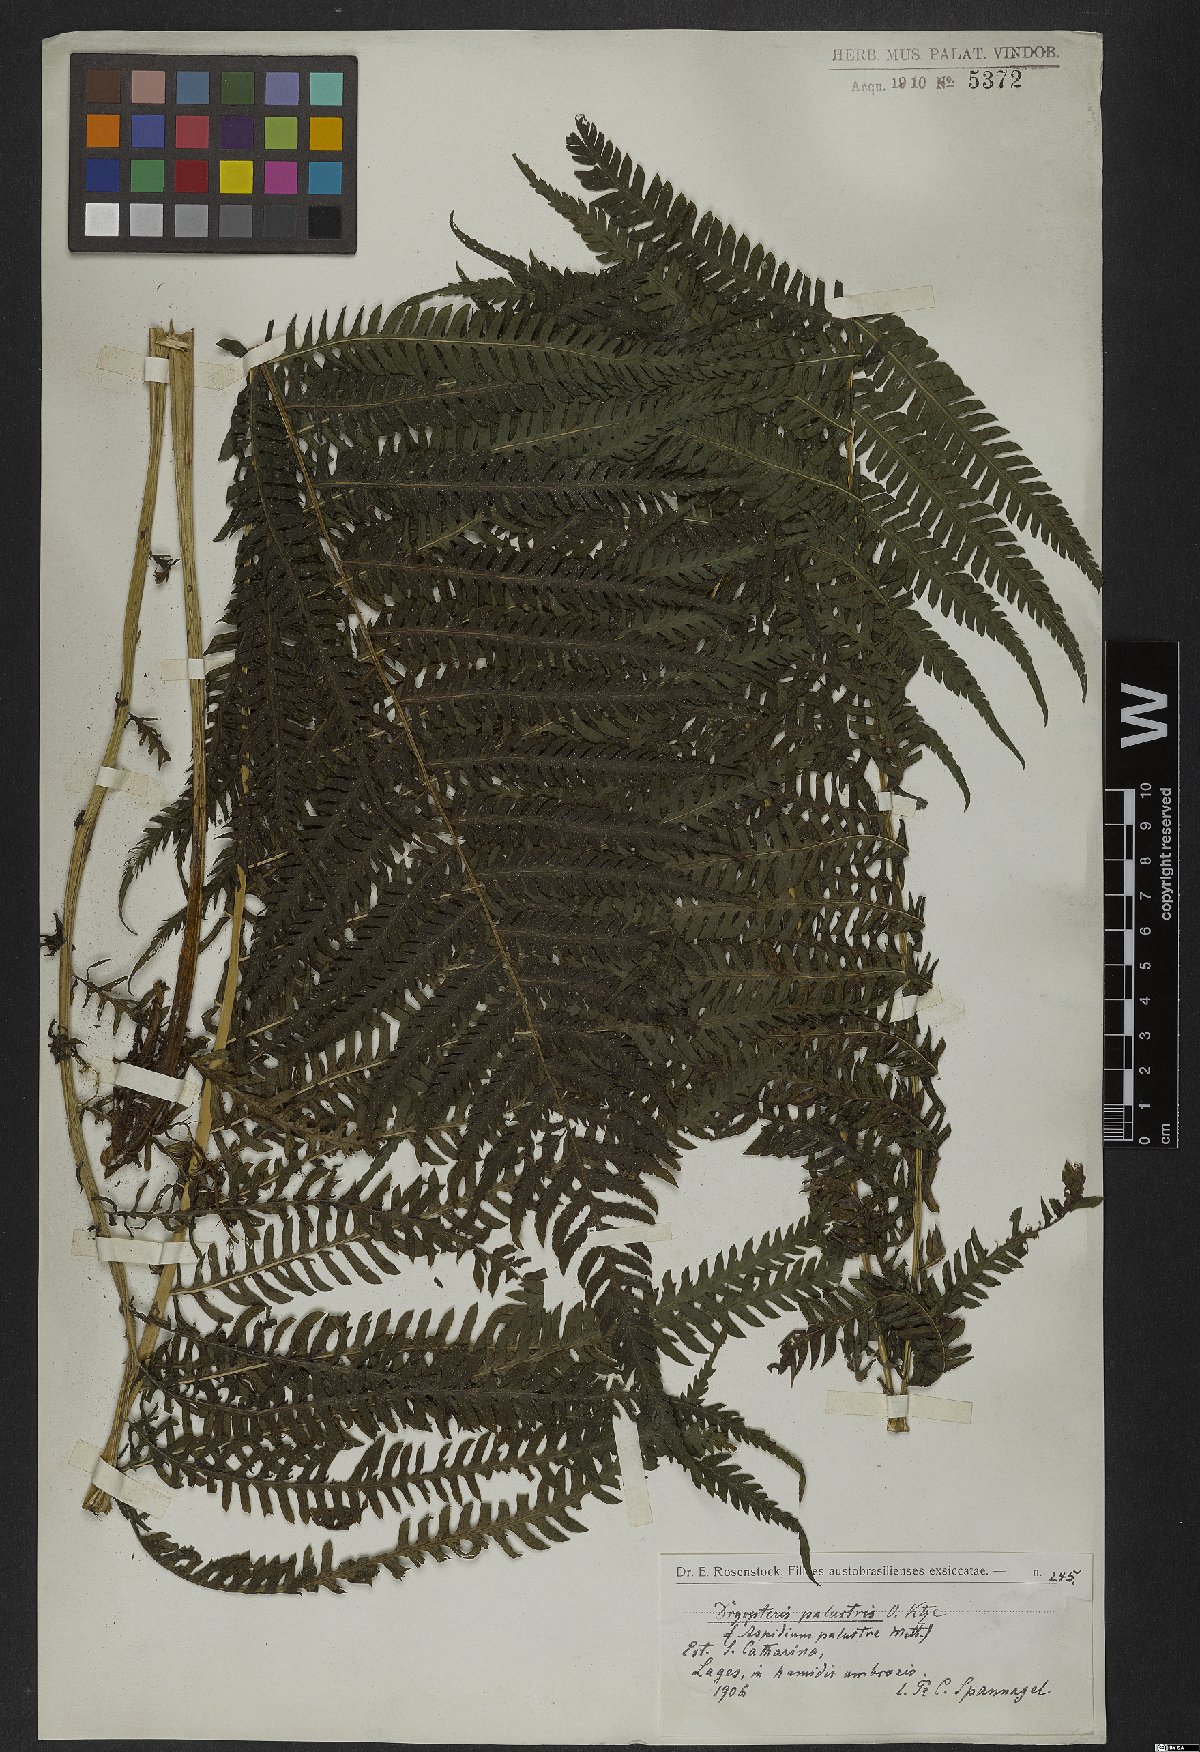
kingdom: Plantae
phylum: Tracheophyta
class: Polypodiopsida
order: Polypodiales
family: Thelypteridaceae
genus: Amauropelta
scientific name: Amauropelta metteniana
